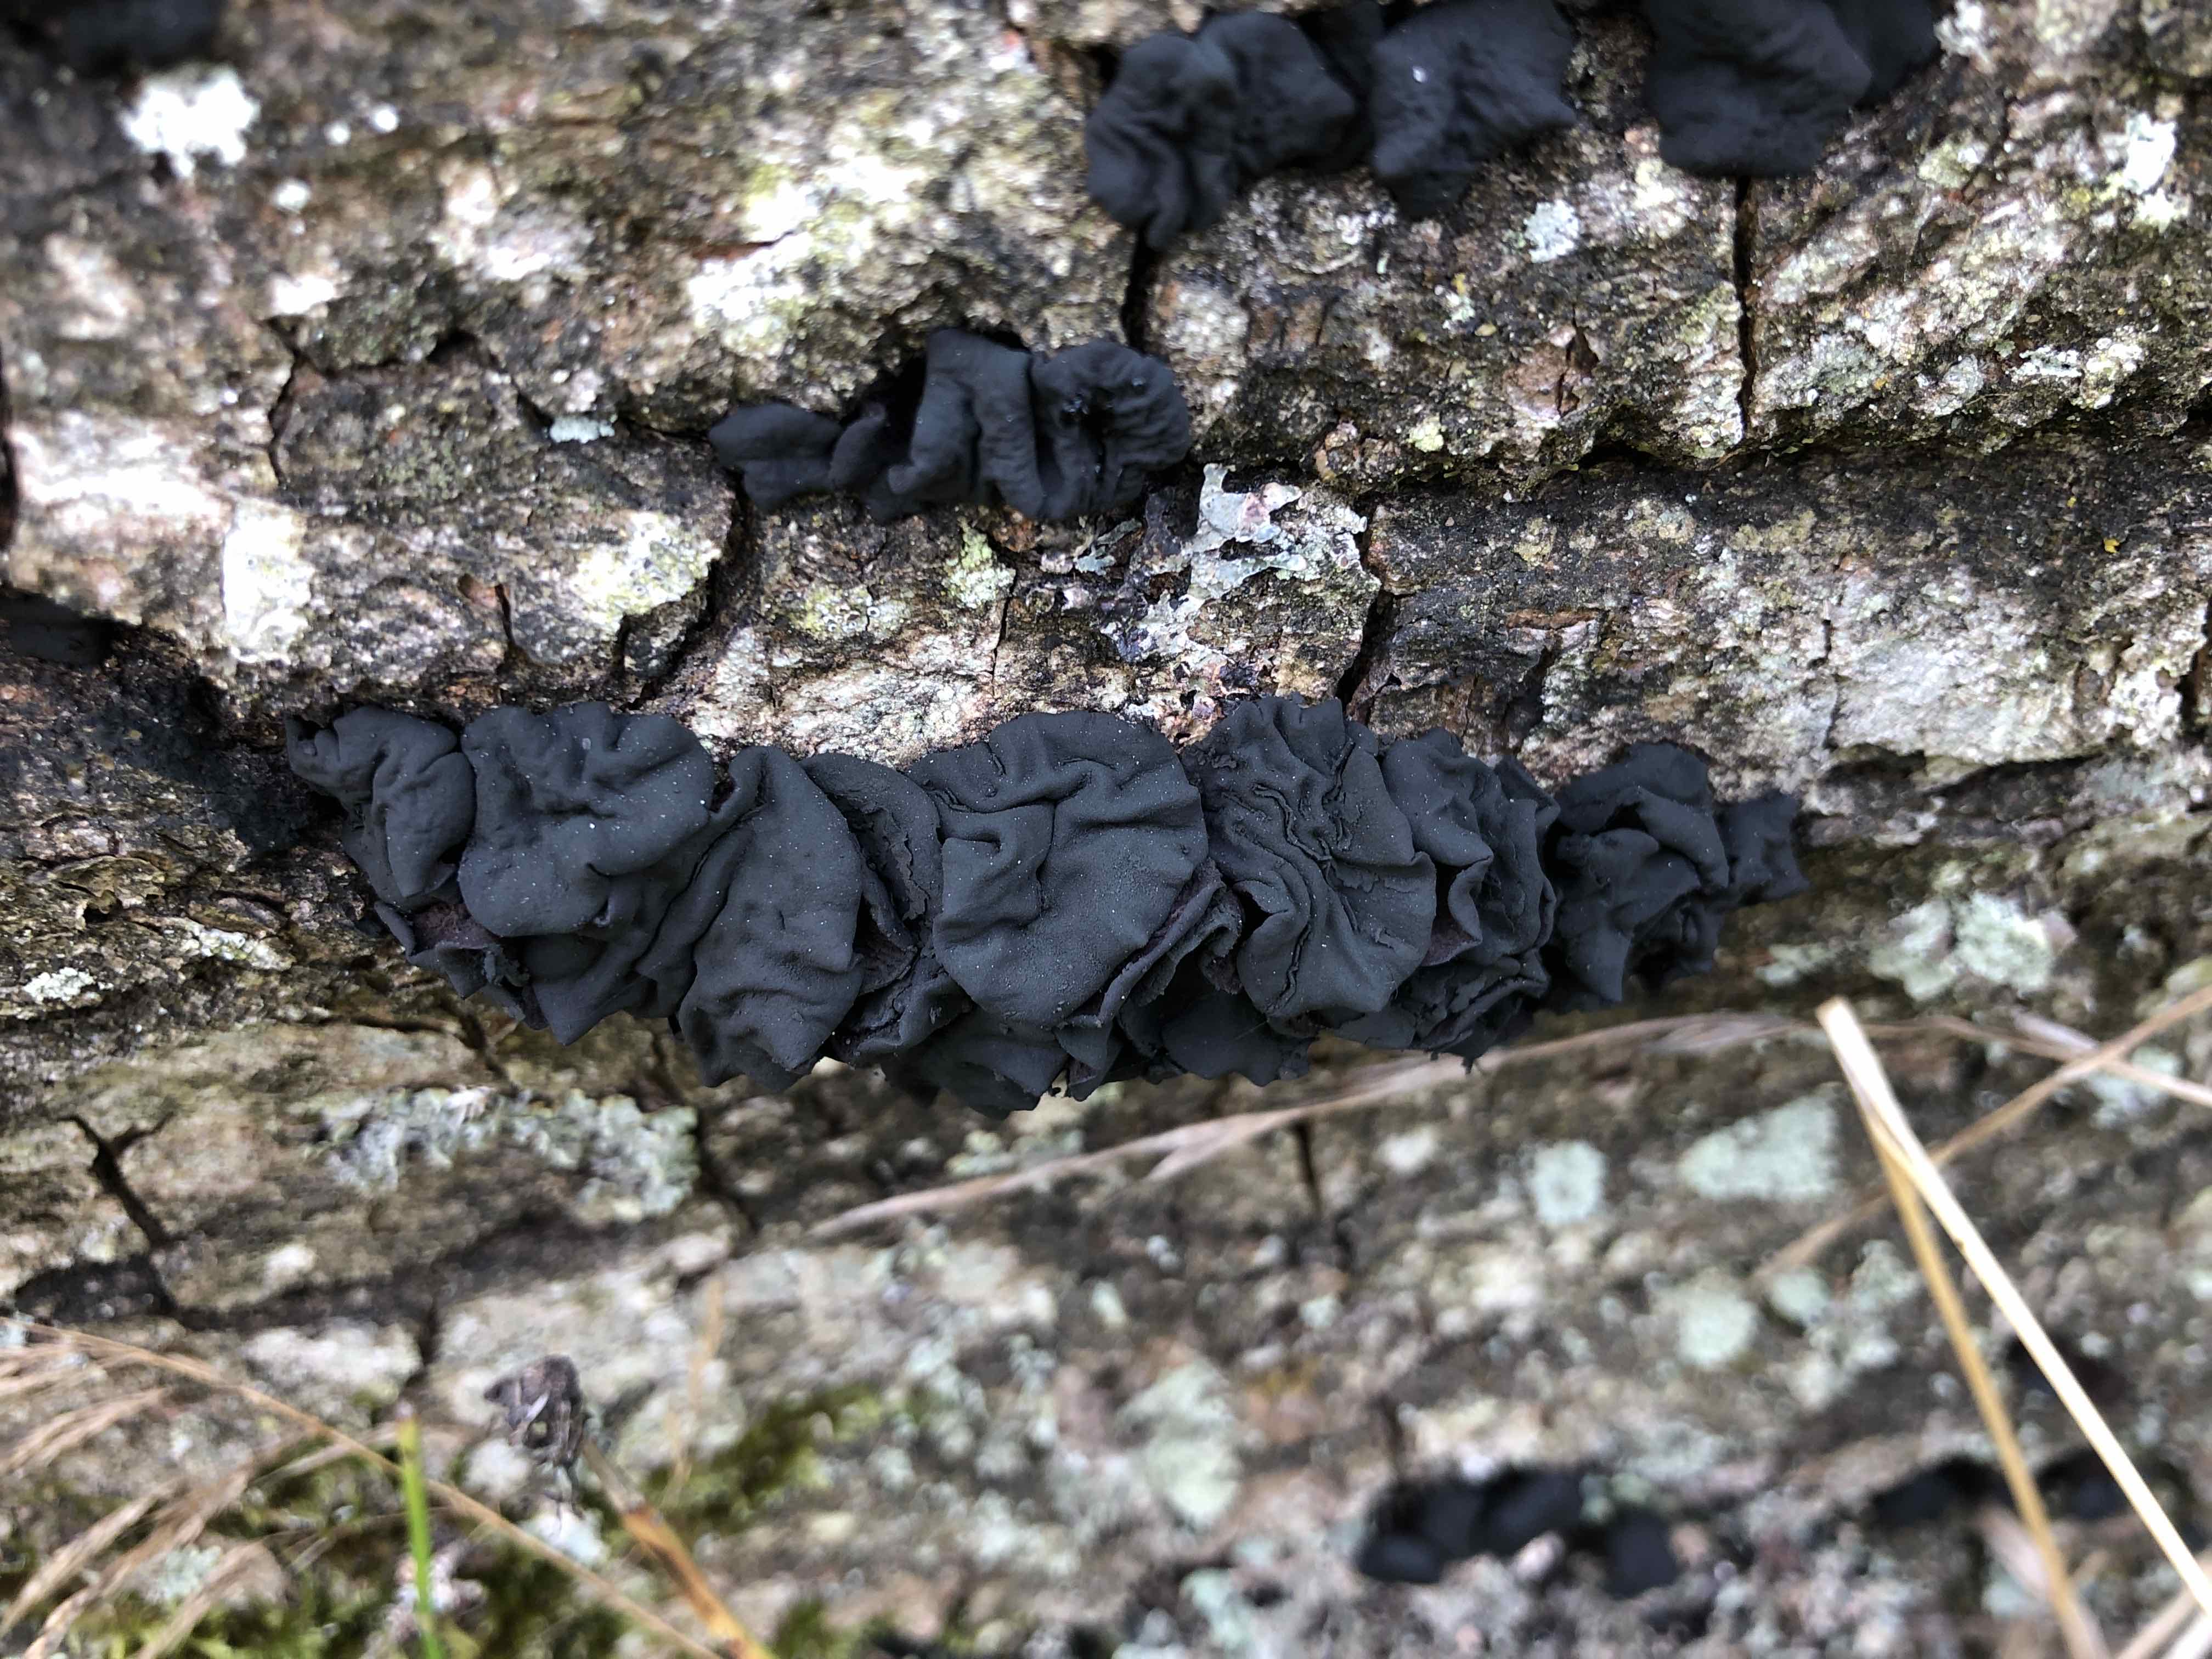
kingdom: Fungi
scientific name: Fungi
